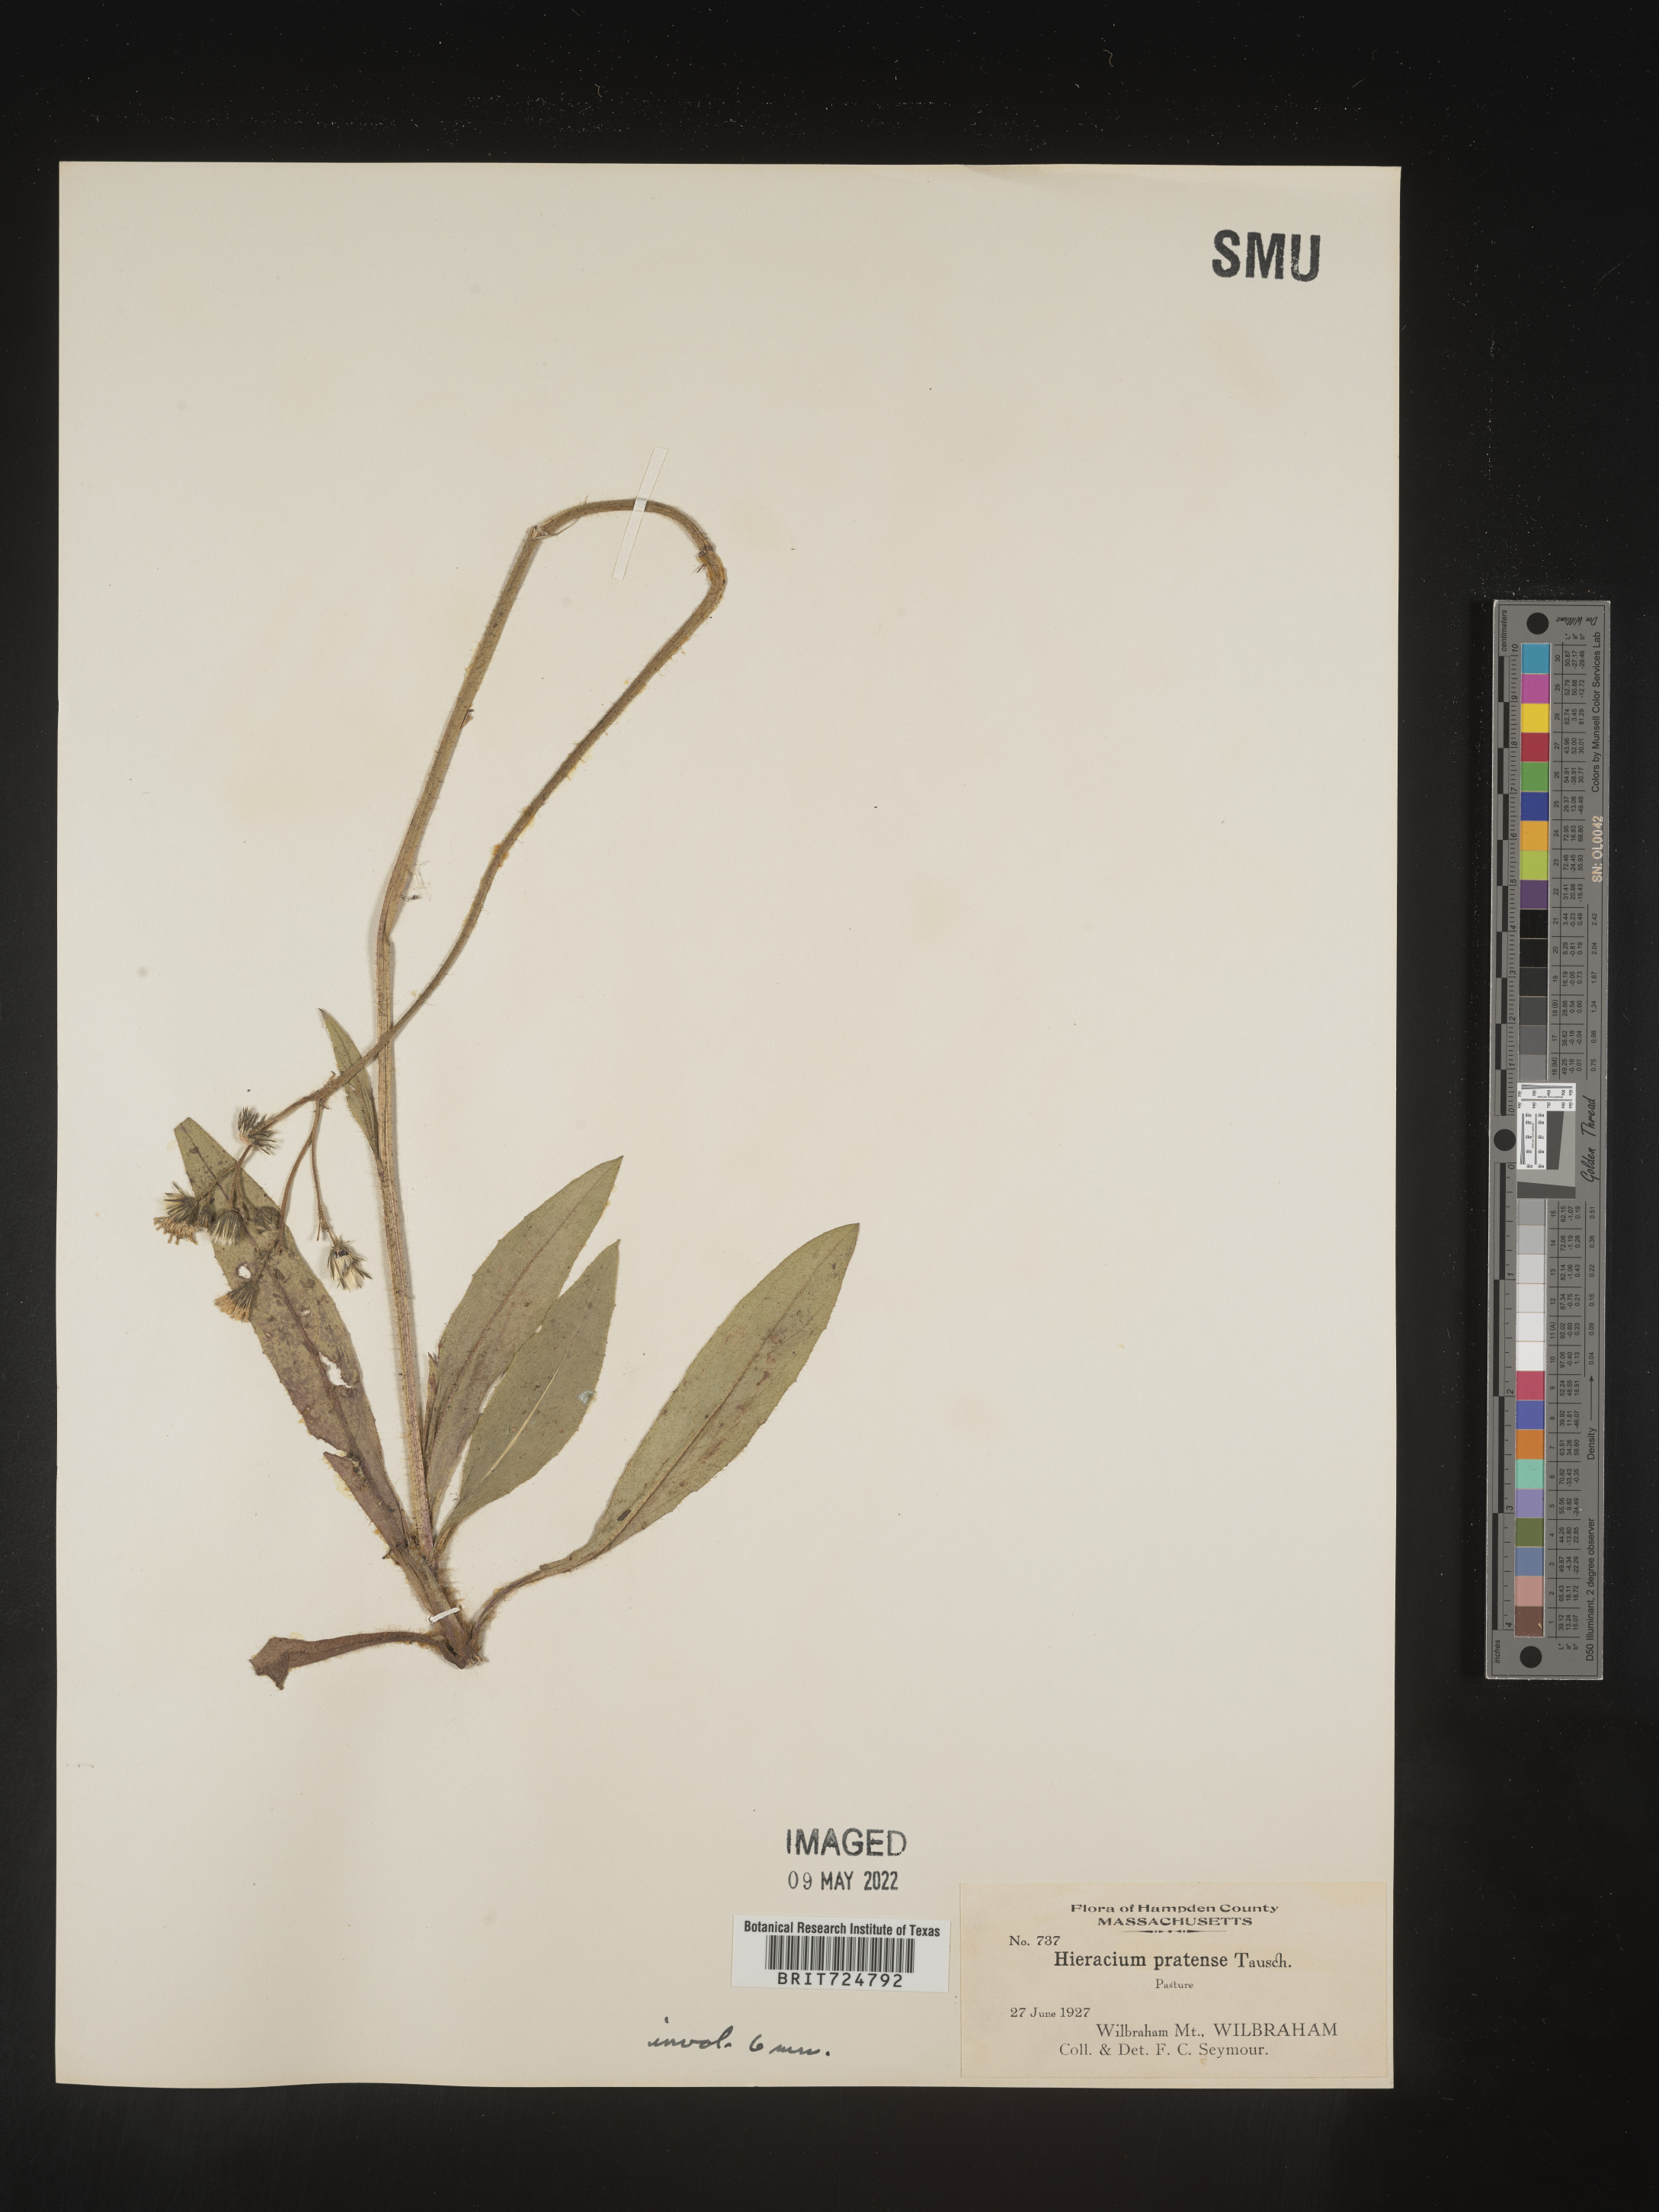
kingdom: Plantae
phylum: Tracheophyta
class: Magnoliopsida
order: Asterales
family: Asteraceae
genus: Hieracium
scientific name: Hieracium
